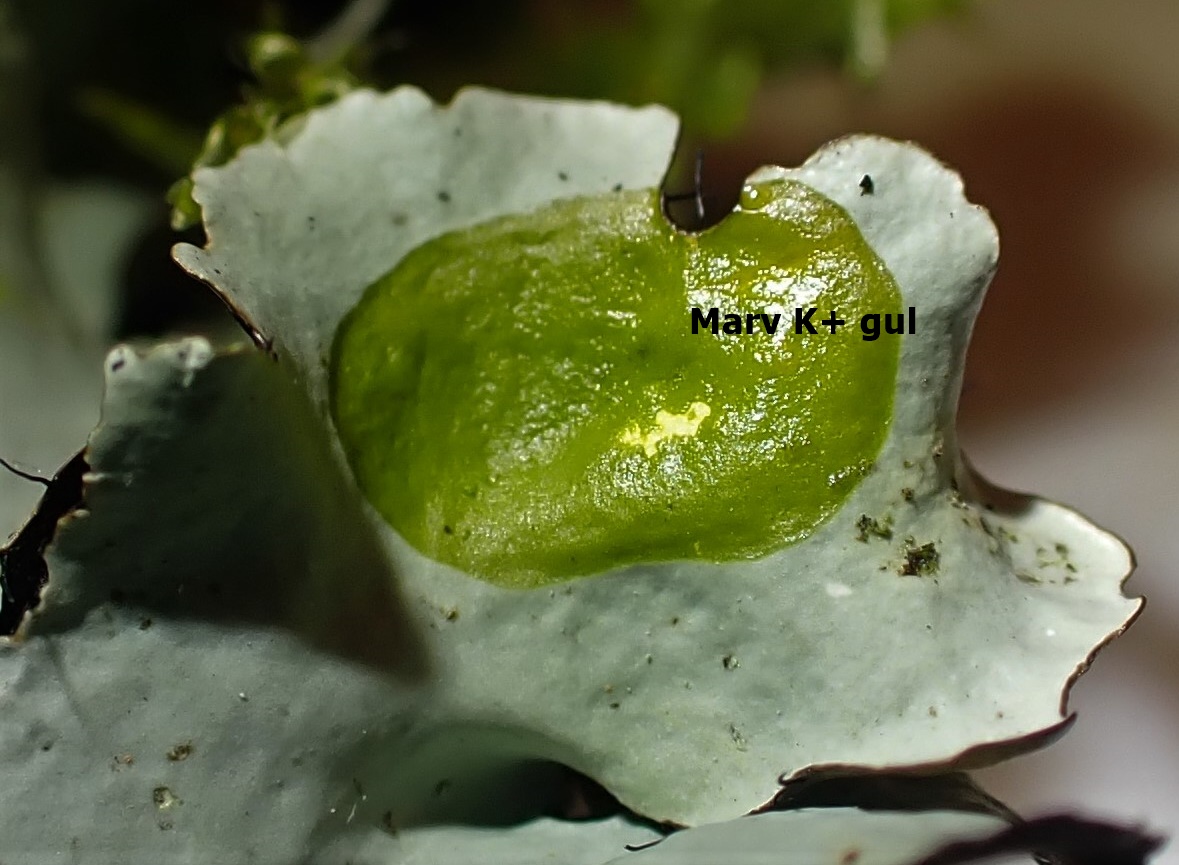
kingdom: Fungi
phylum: Ascomycota
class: Lecanoromycetes
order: Lecanorales
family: Parmeliaceae
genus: Parmotrema
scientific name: Parmotrema perlatum
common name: trådet skållav
